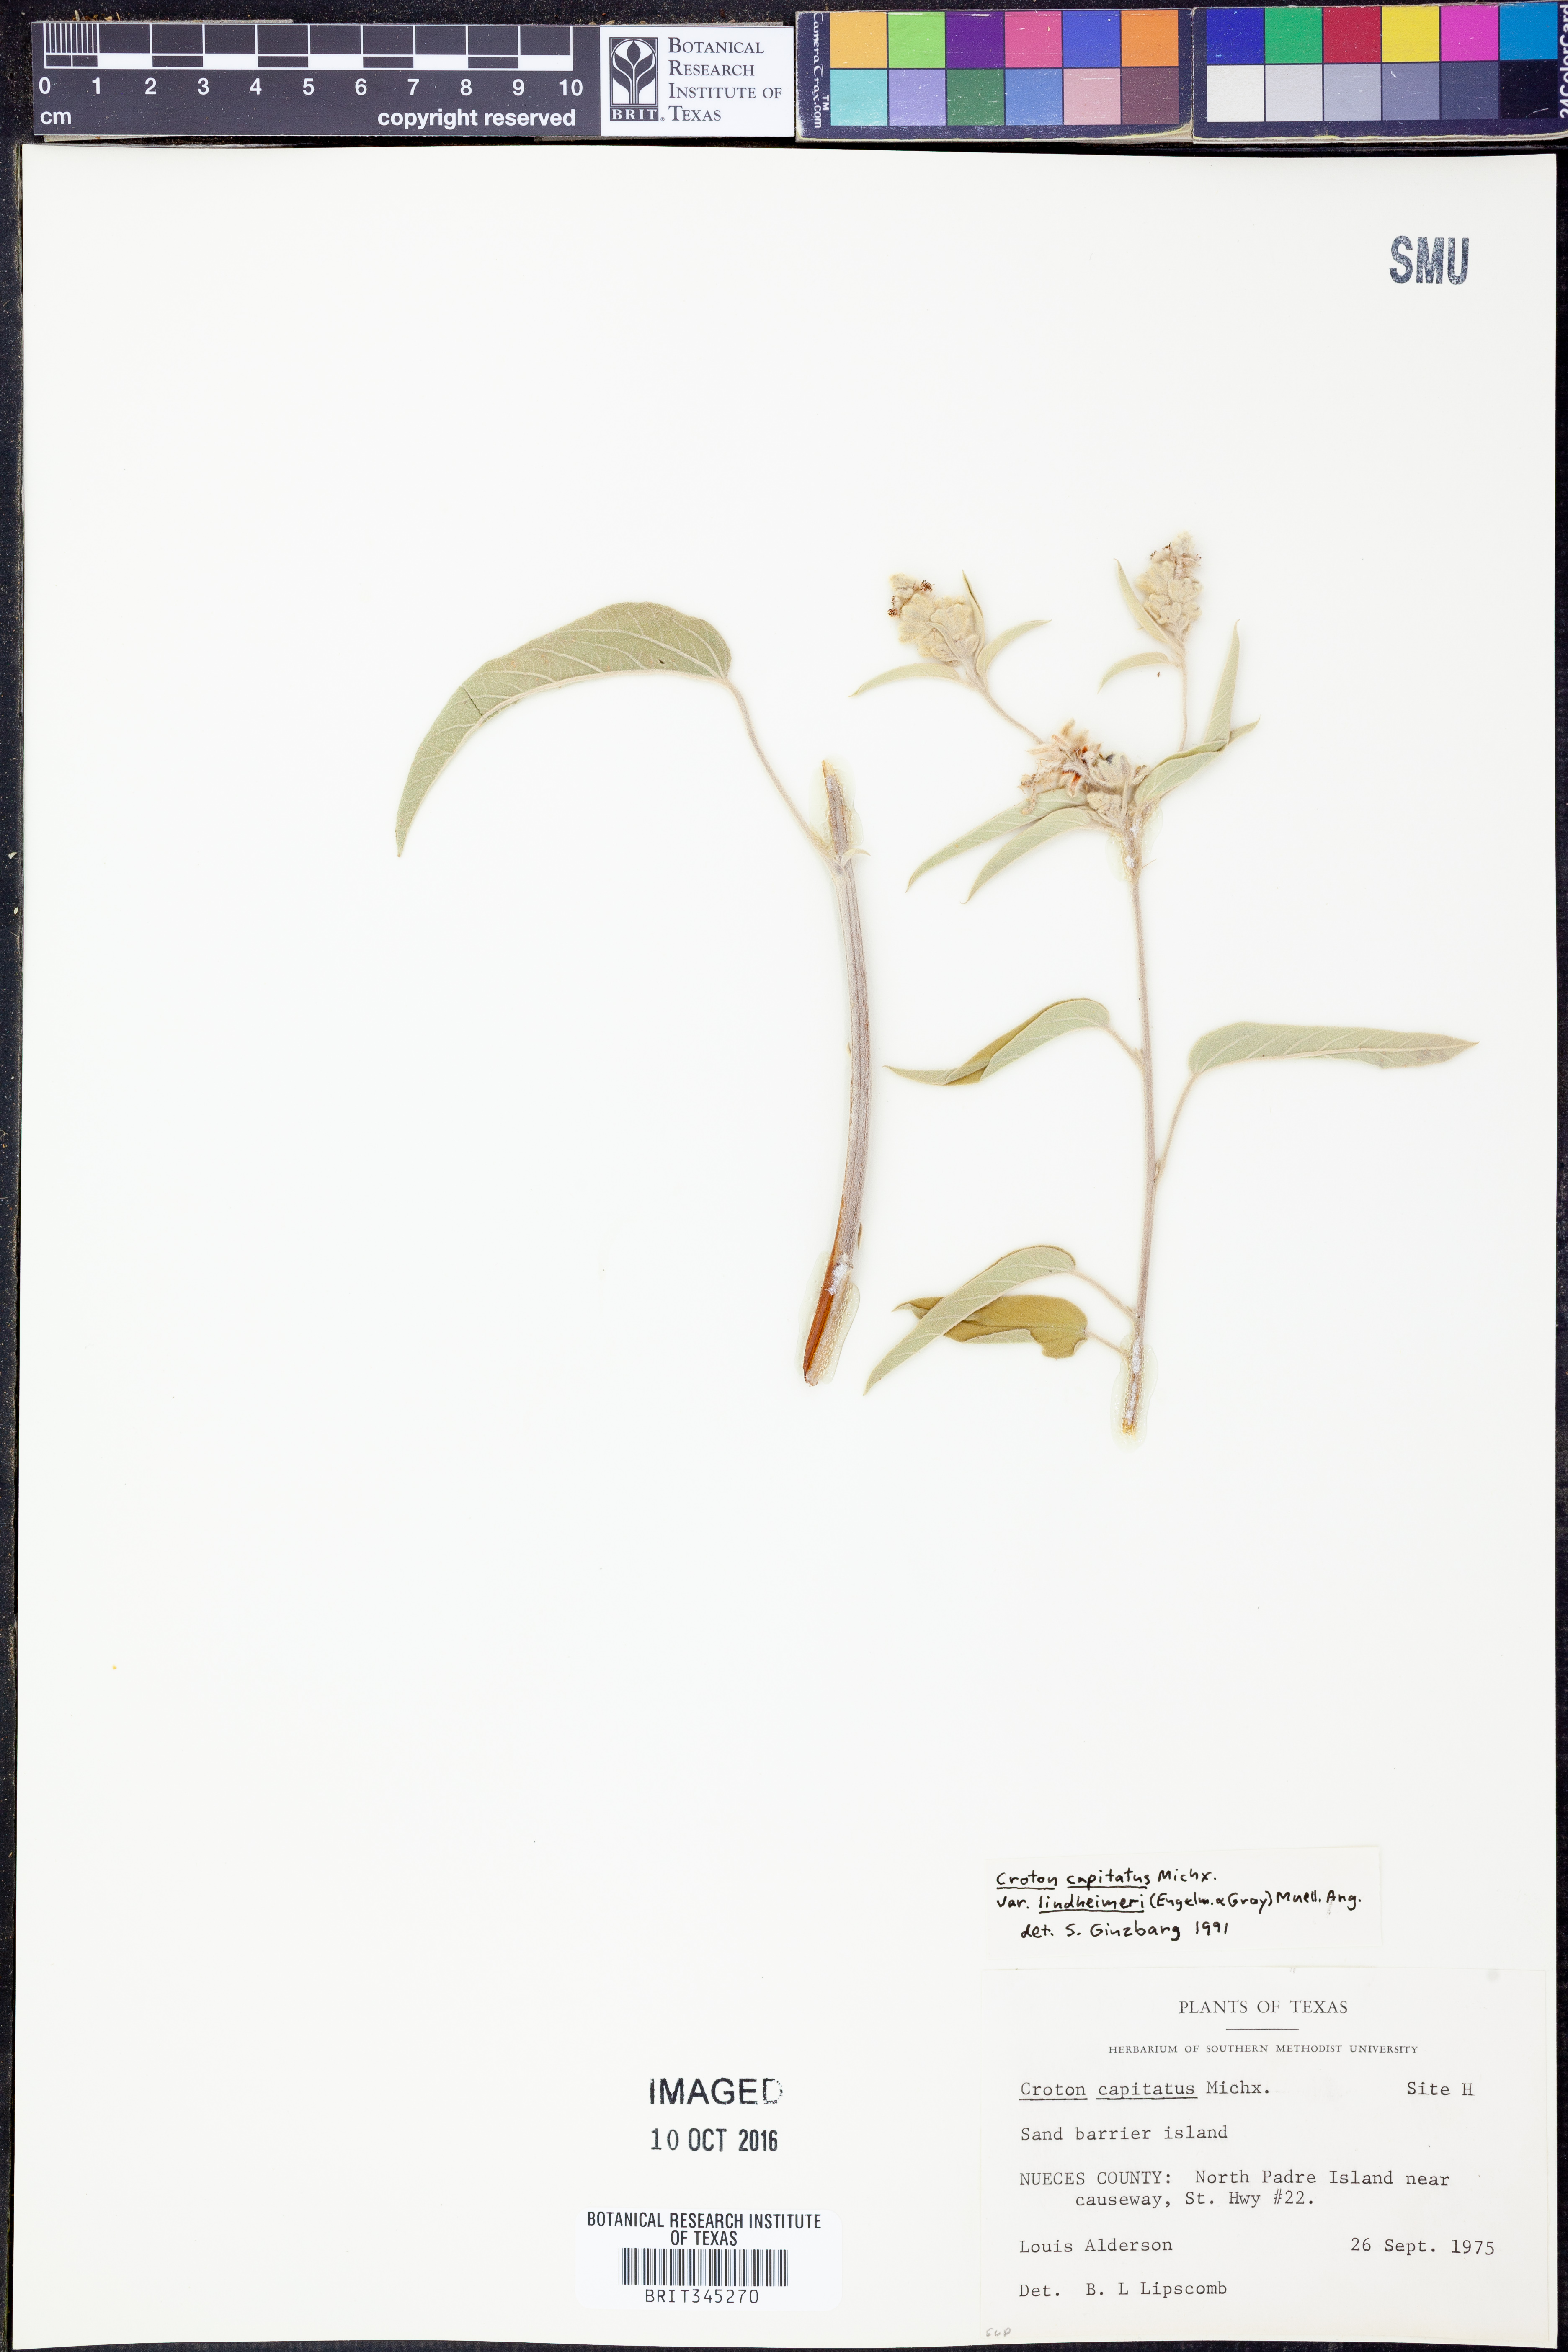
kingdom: Plantae
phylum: Tracheophyta
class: Magnoliopsida
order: Malpighiales
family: Euphorbiaceae
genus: Croton
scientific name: Croton lindheimeri
